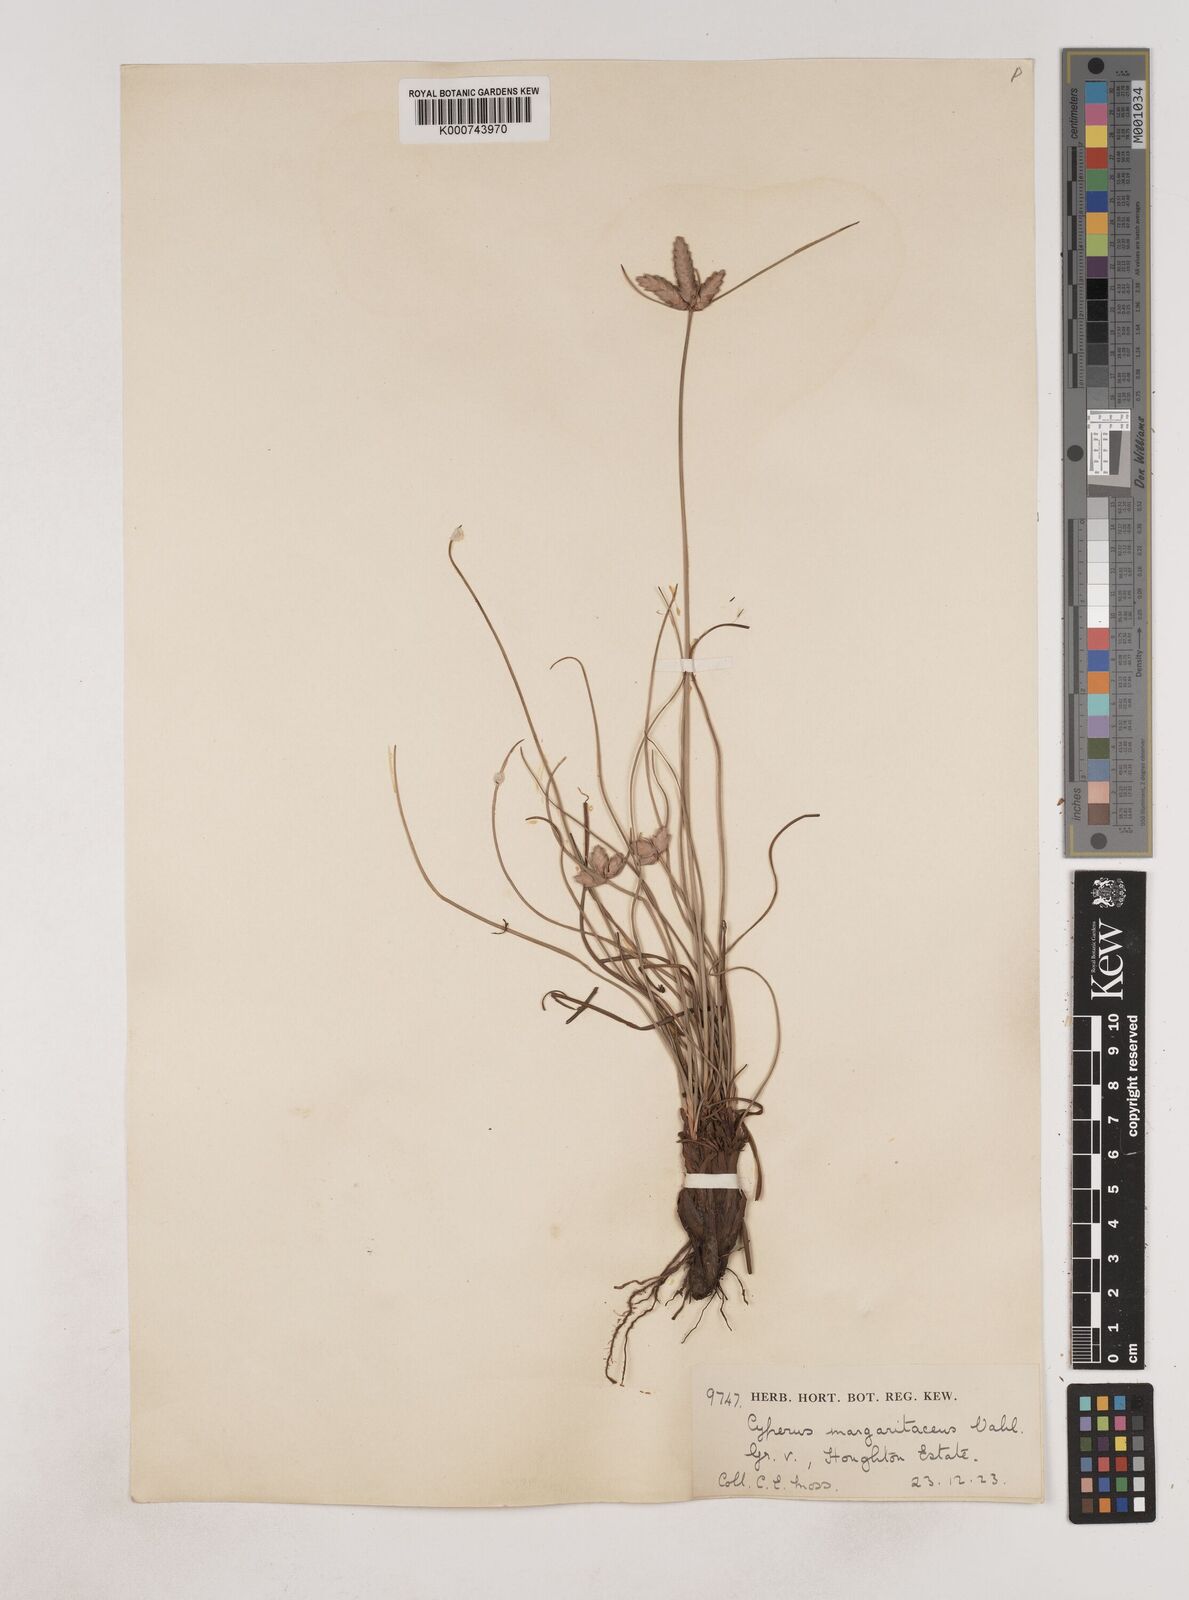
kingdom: Plantae
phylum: Tracheophyta
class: Liliopsida
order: Poales
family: Cyperaceae
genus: Cyperus
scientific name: Cyperus margaritaceus
